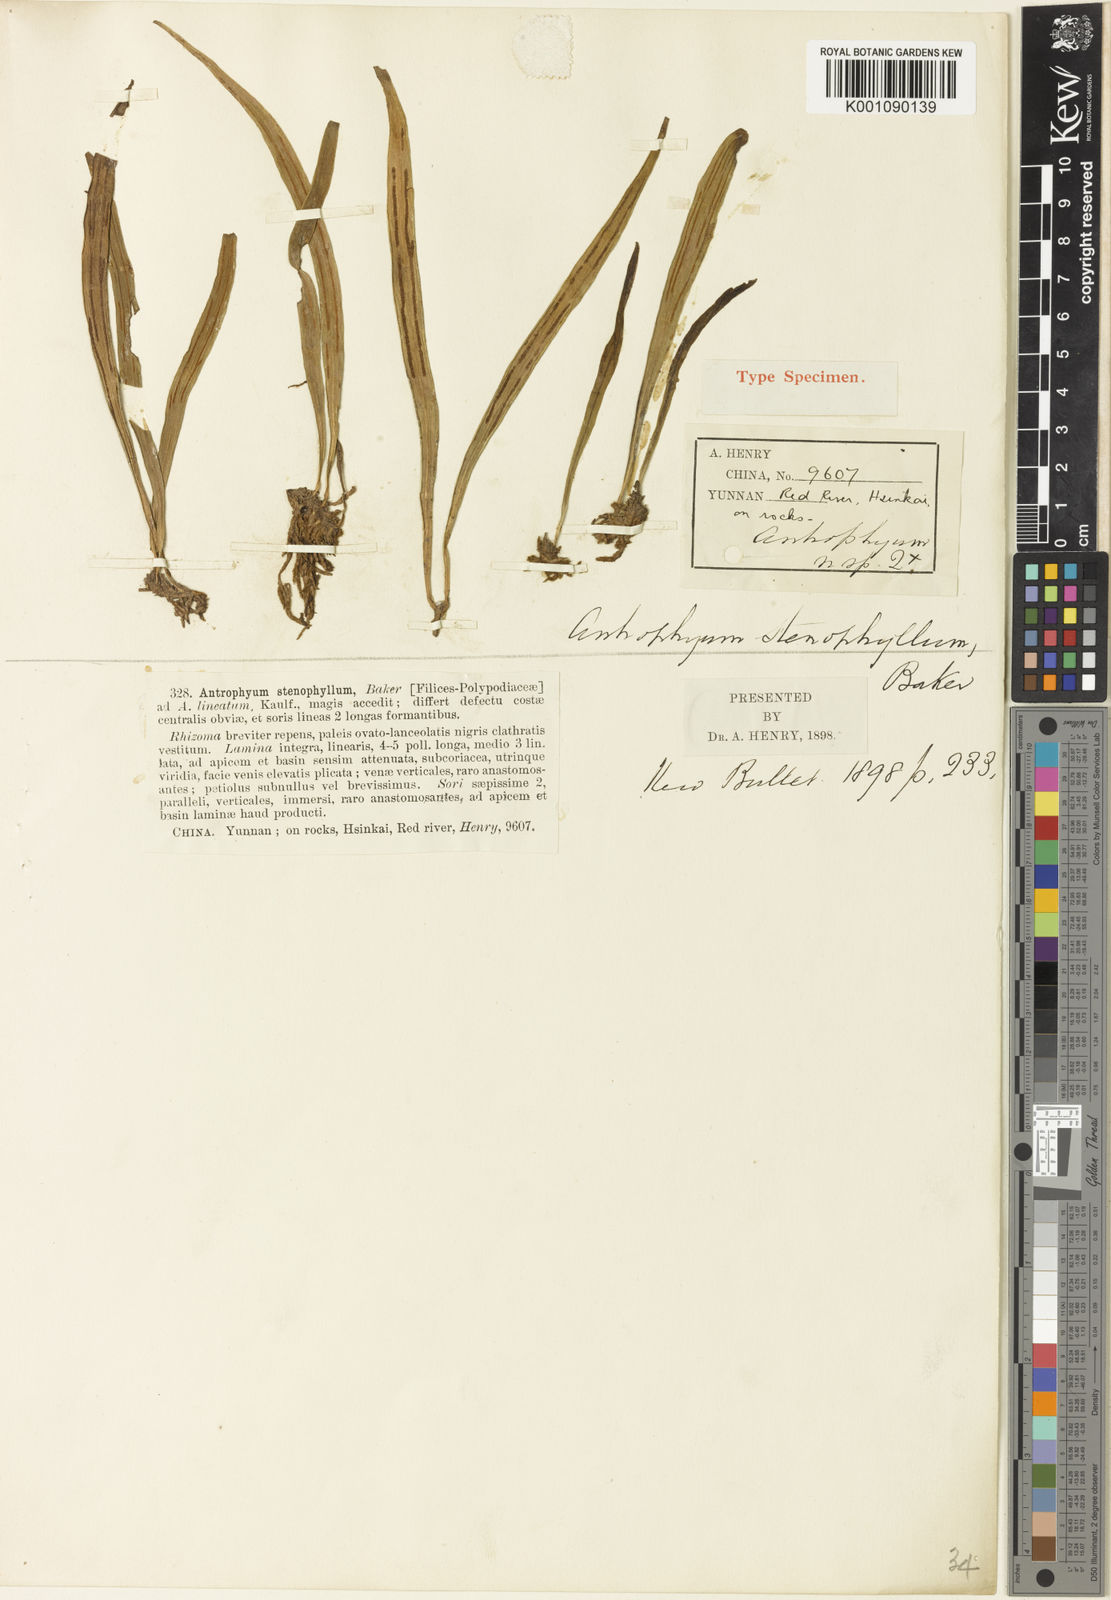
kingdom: Plantae
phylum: Tracheophyta
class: Polypodiopsida
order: Polypodiales
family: Pteridaceae
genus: Antrophyum
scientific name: Antrophyum vittarioides
